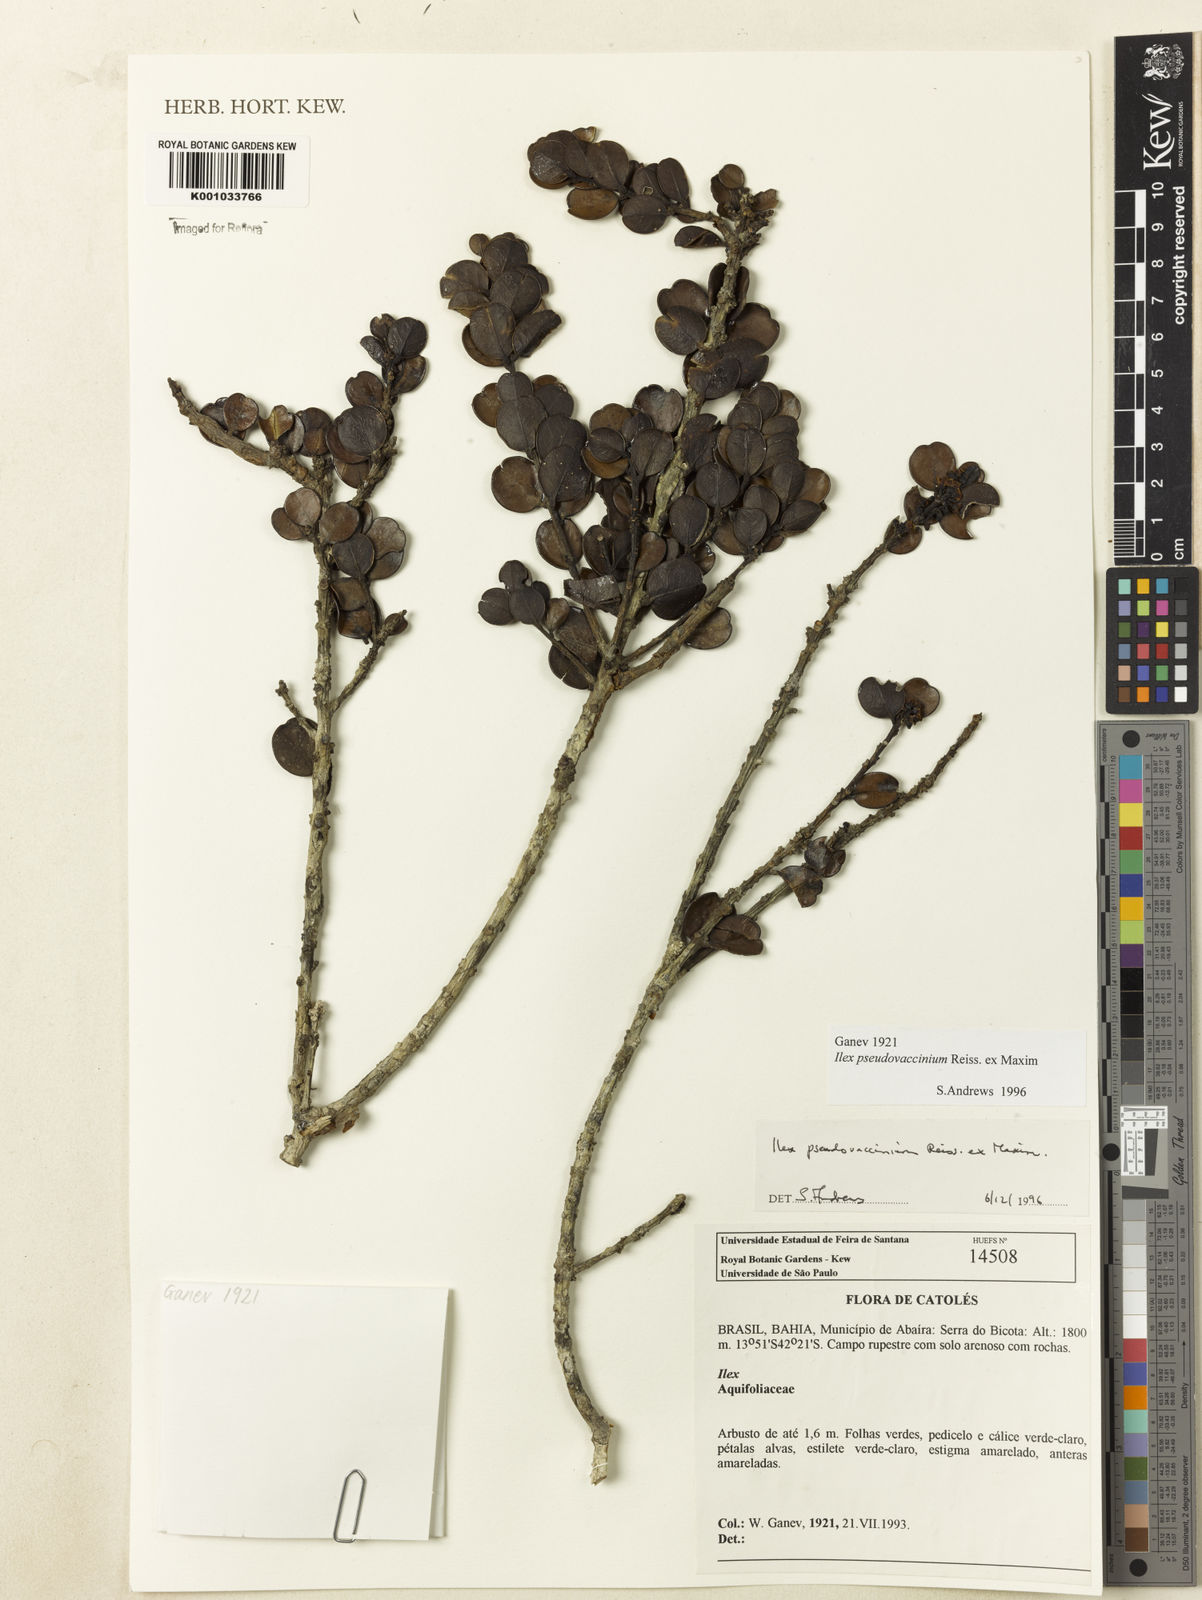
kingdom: Plantae
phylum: Tracheophyta
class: Magnoliopsida
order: Aquifoliales
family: Aquifoliaceae
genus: Ilex
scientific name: Ilex pseudovaccinium
